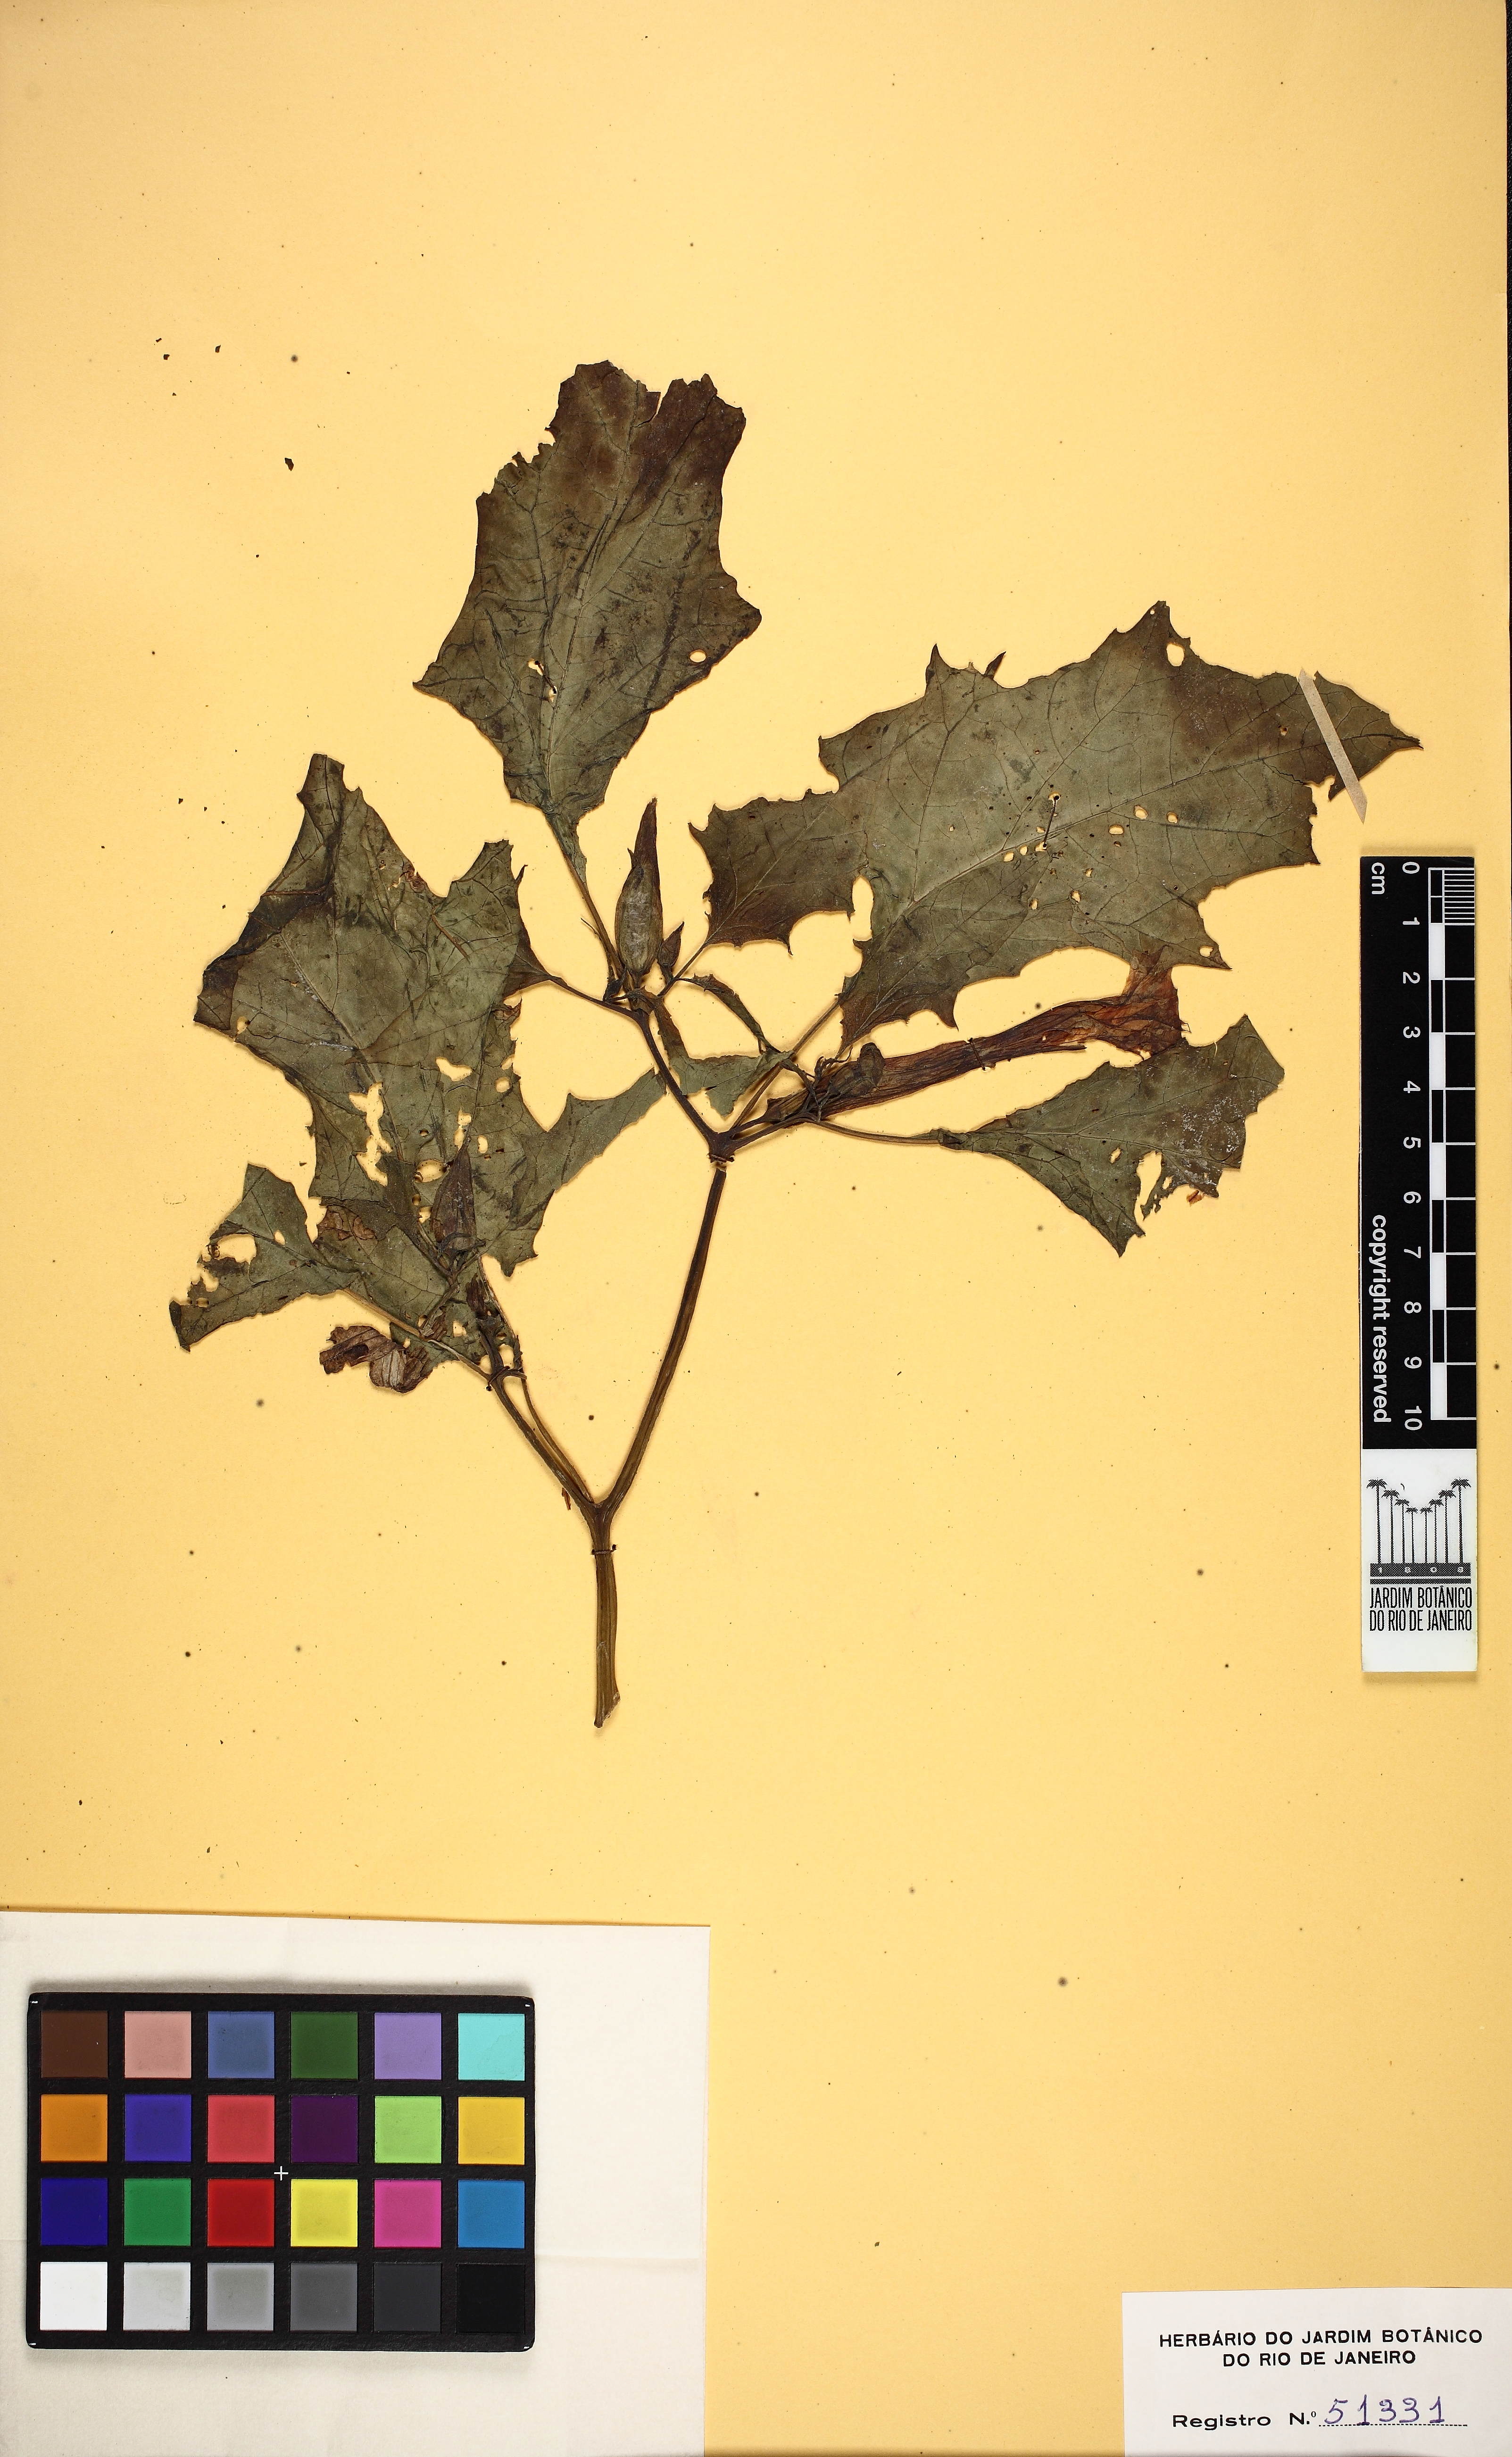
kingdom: Plantae
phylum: Tracheophyta
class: Magnoliopsida
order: Solanales
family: Solanaceae
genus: Datura
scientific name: Datura stramonium
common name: Thorn-apple
